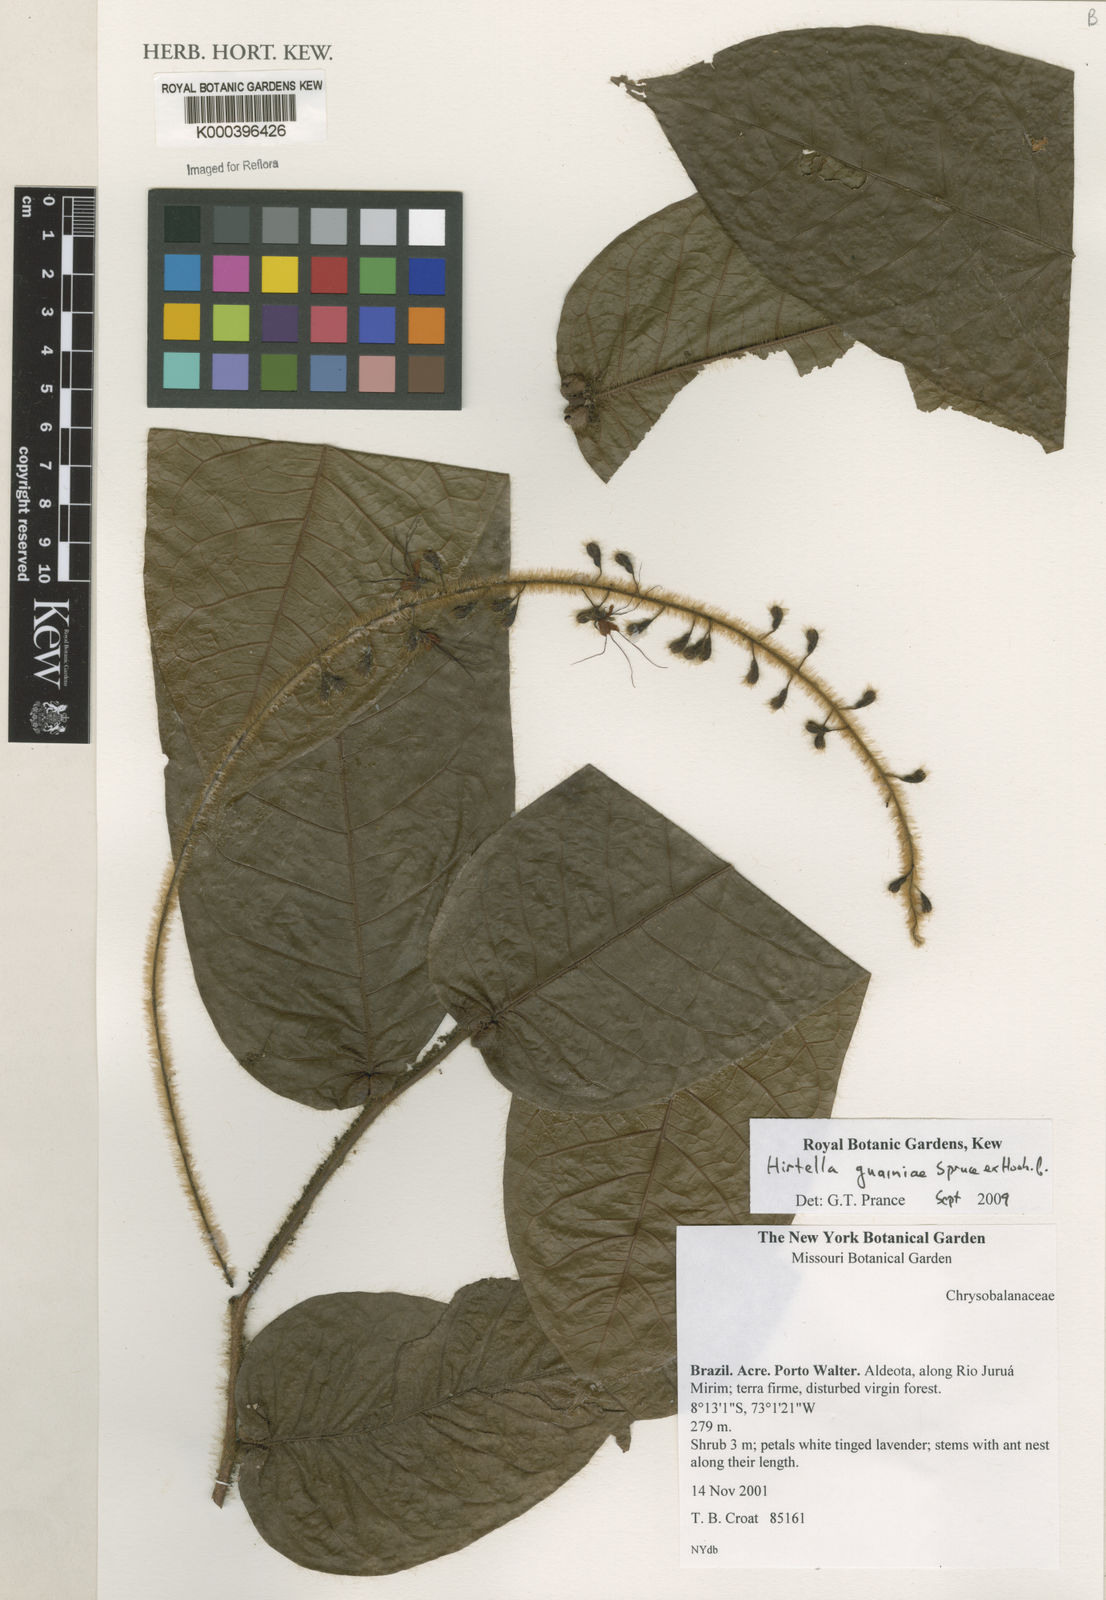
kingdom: Plantae
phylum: Tracheophyta
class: Magnoliopsida
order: Malpighiales
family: Chrysobalanaceae
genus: Hirtella
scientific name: Hirtella guainiae
